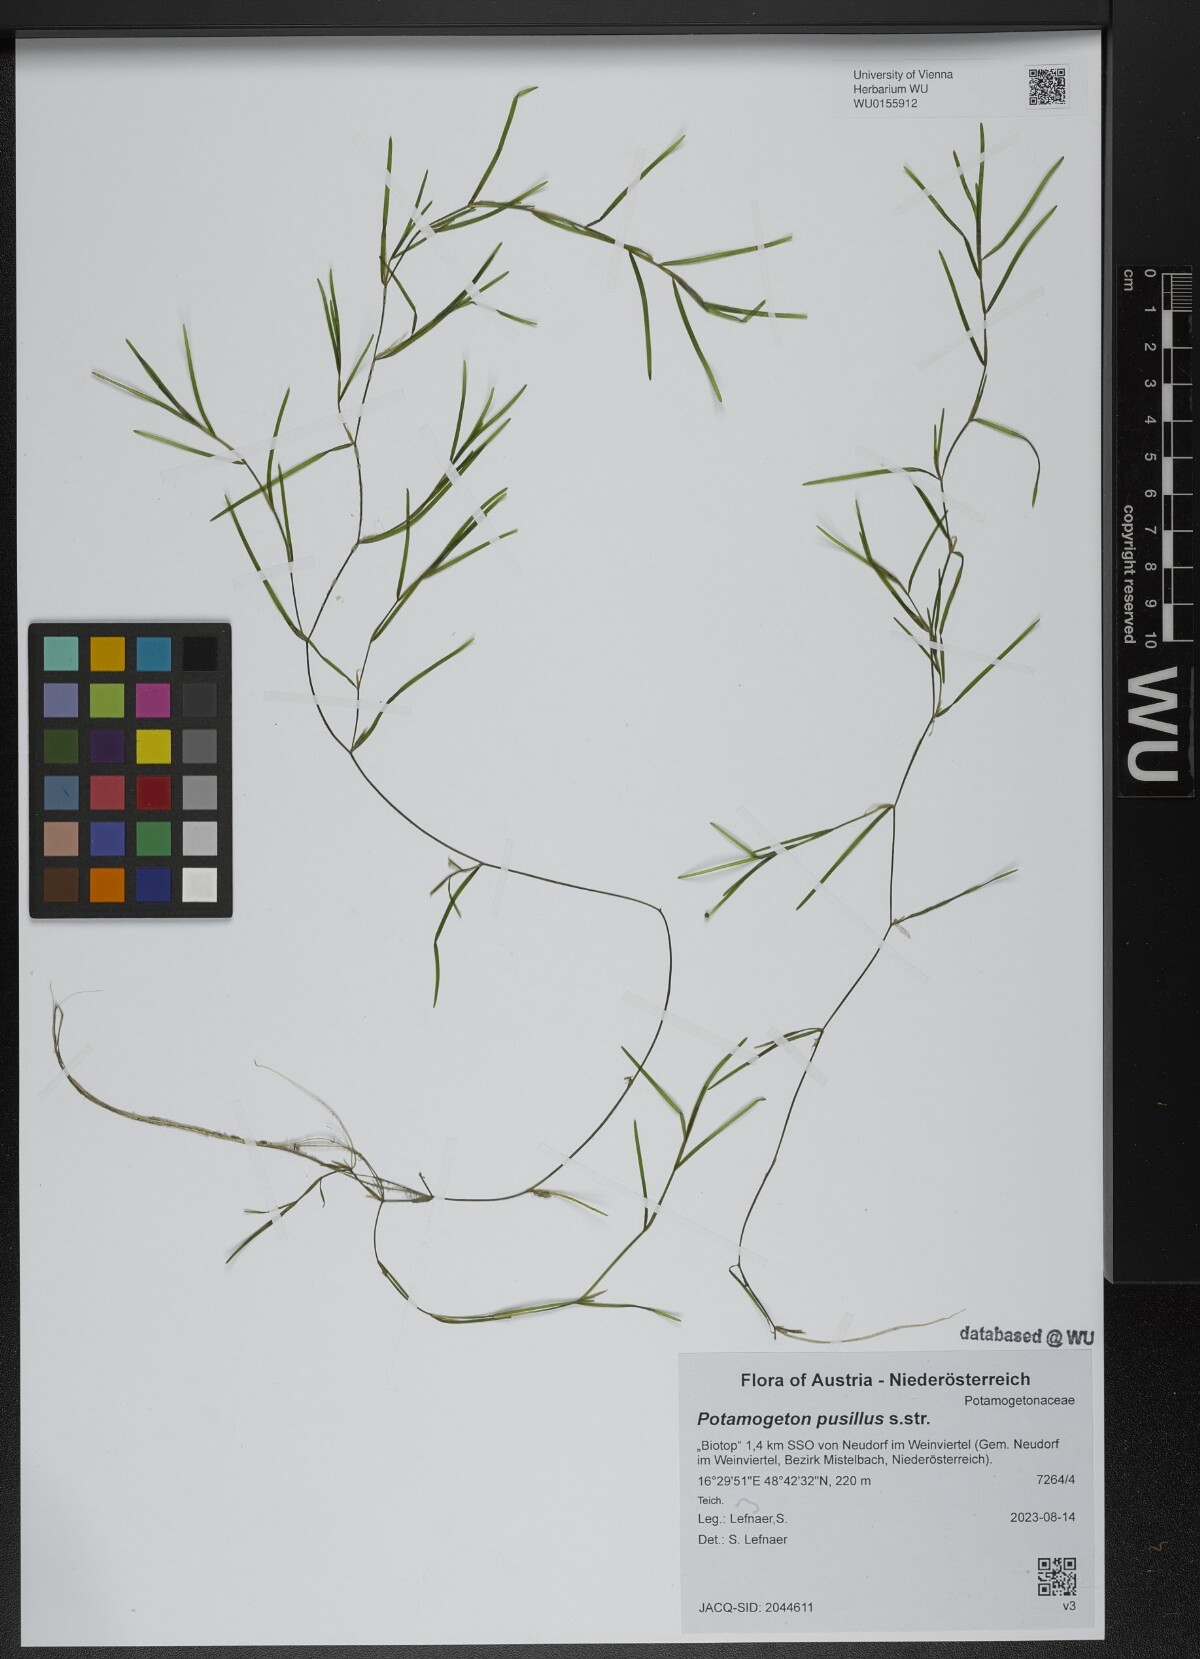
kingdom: Plantae
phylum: Tracheophyta
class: Liliopsida
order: Alismatales
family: Potamogetonaceae
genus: Potamogeton
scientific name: Potamogeton pusillus
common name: Lesser pondweed
